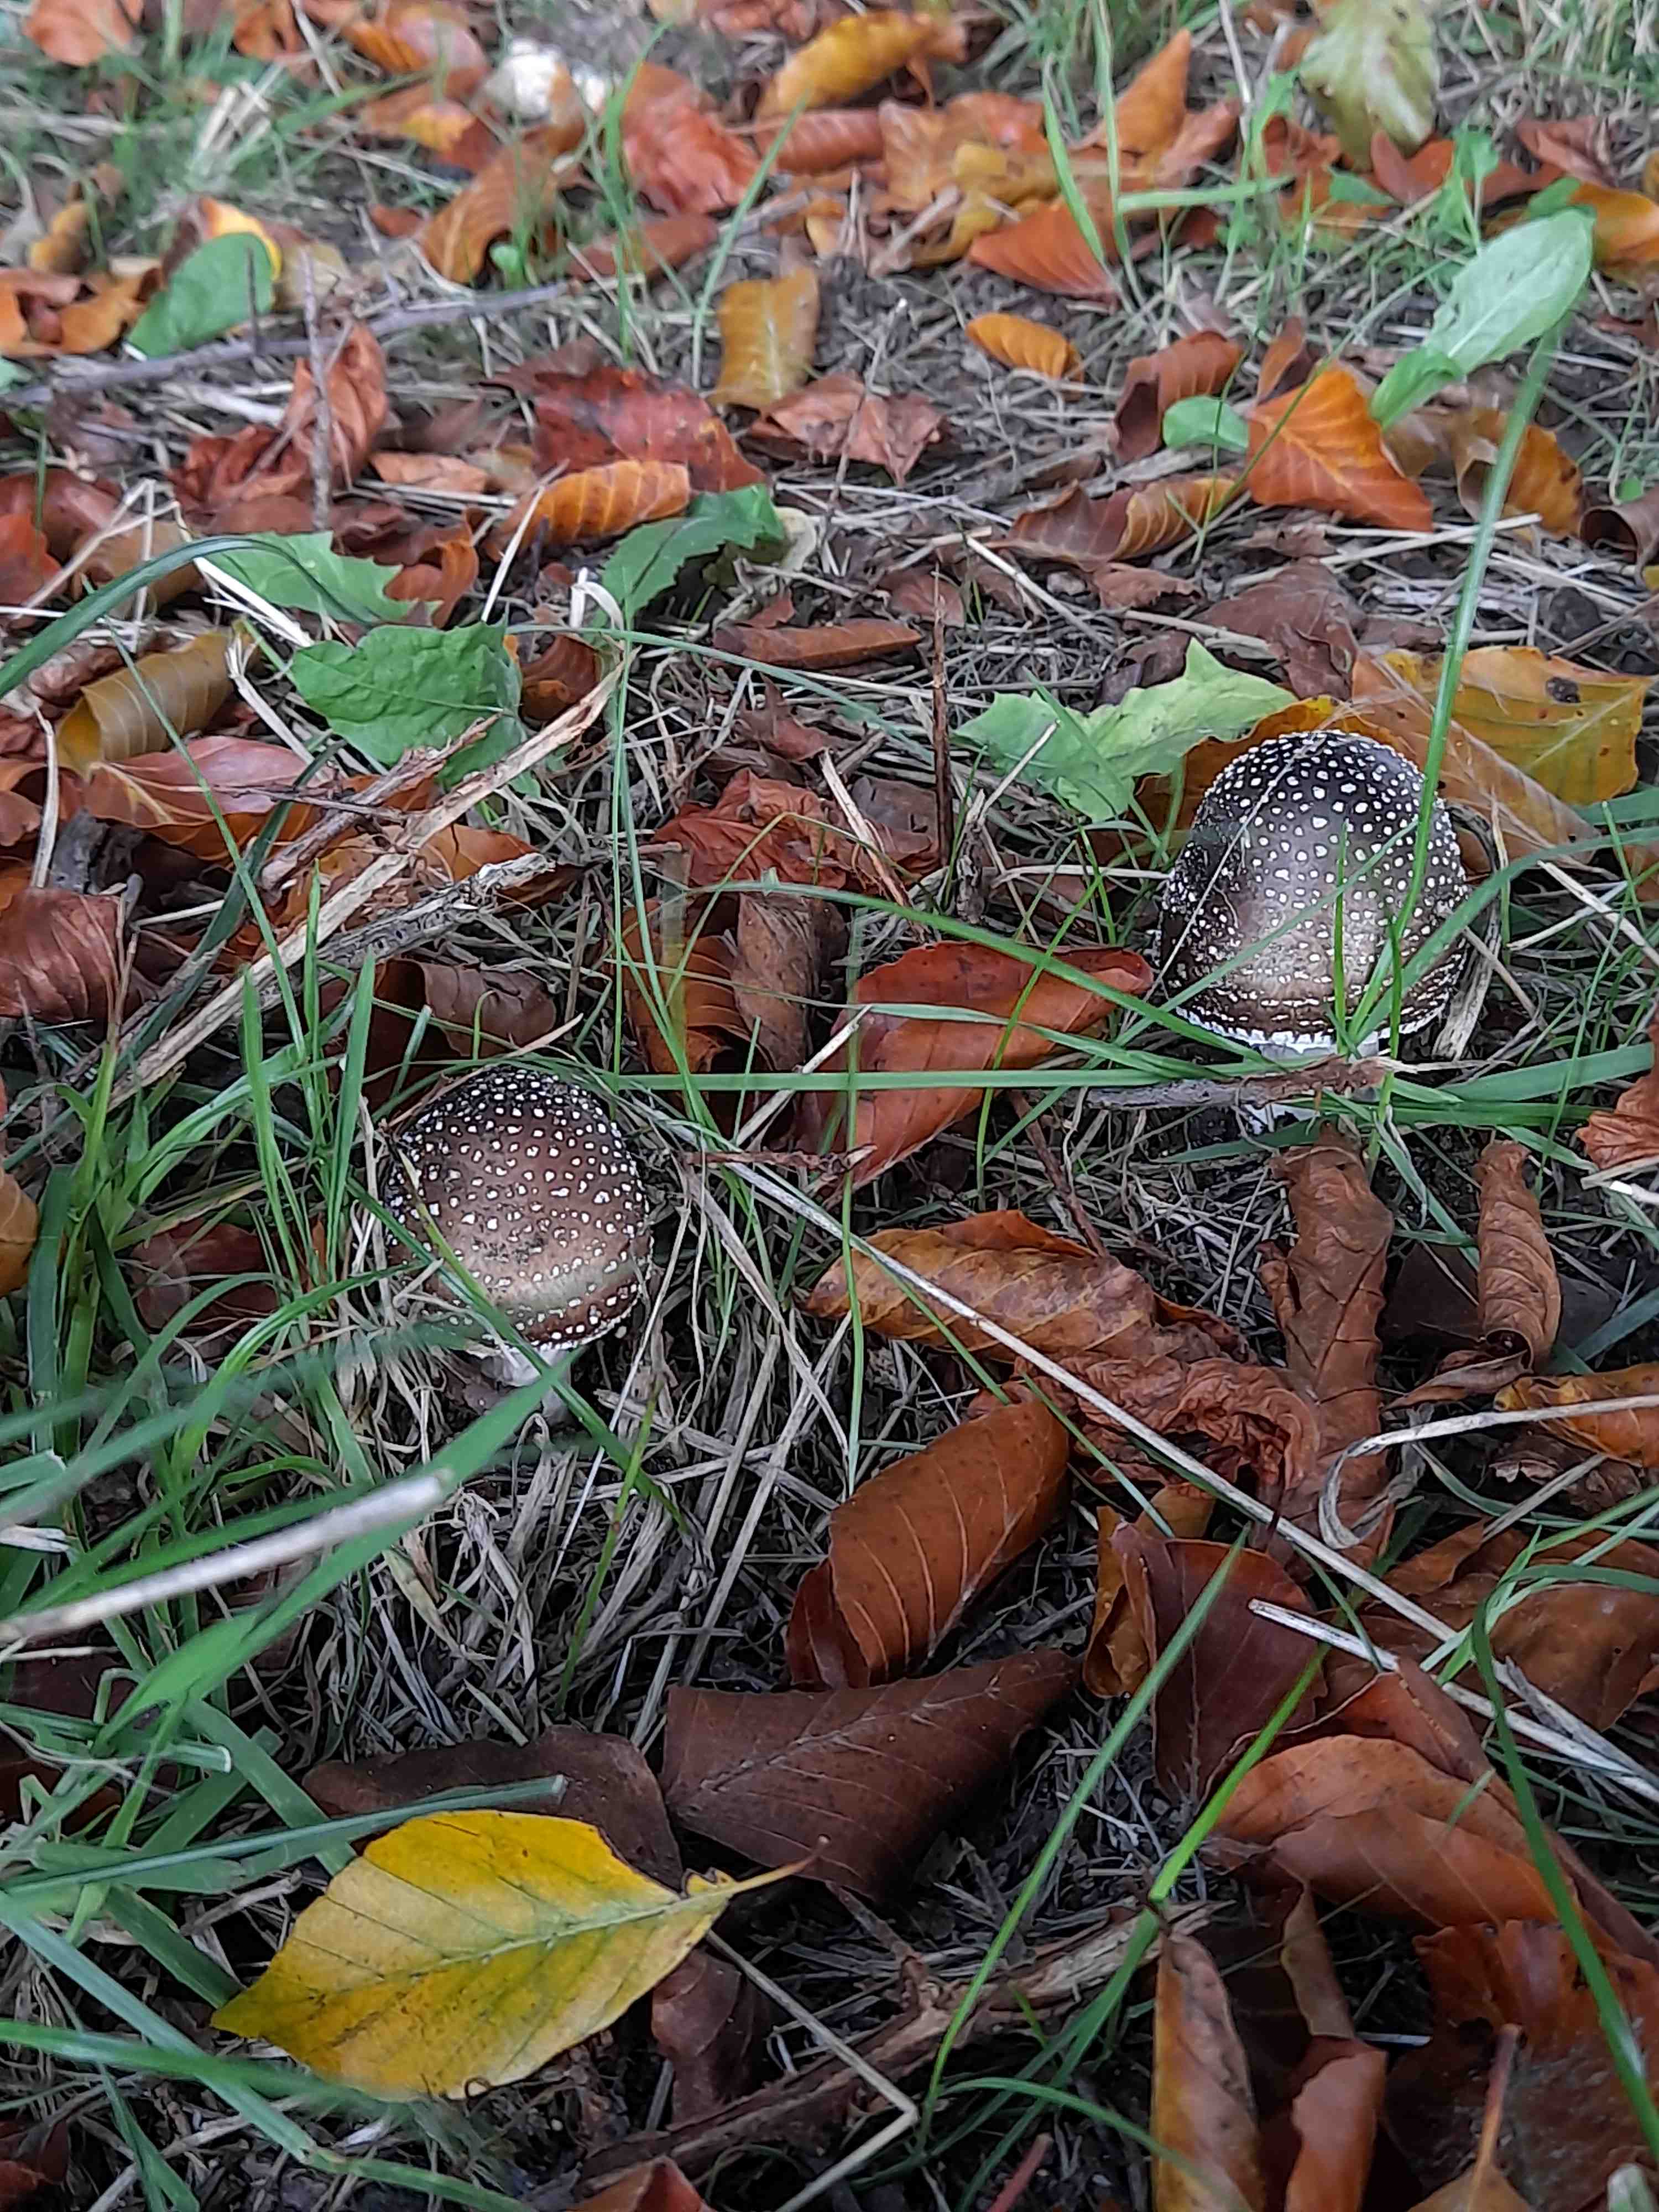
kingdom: Fungi
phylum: Basidiomycota
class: Agaricomycetes
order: Agaricales
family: Amanitaceae
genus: Amanita
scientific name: Amanita pantherina
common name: panter-fluesvamp
